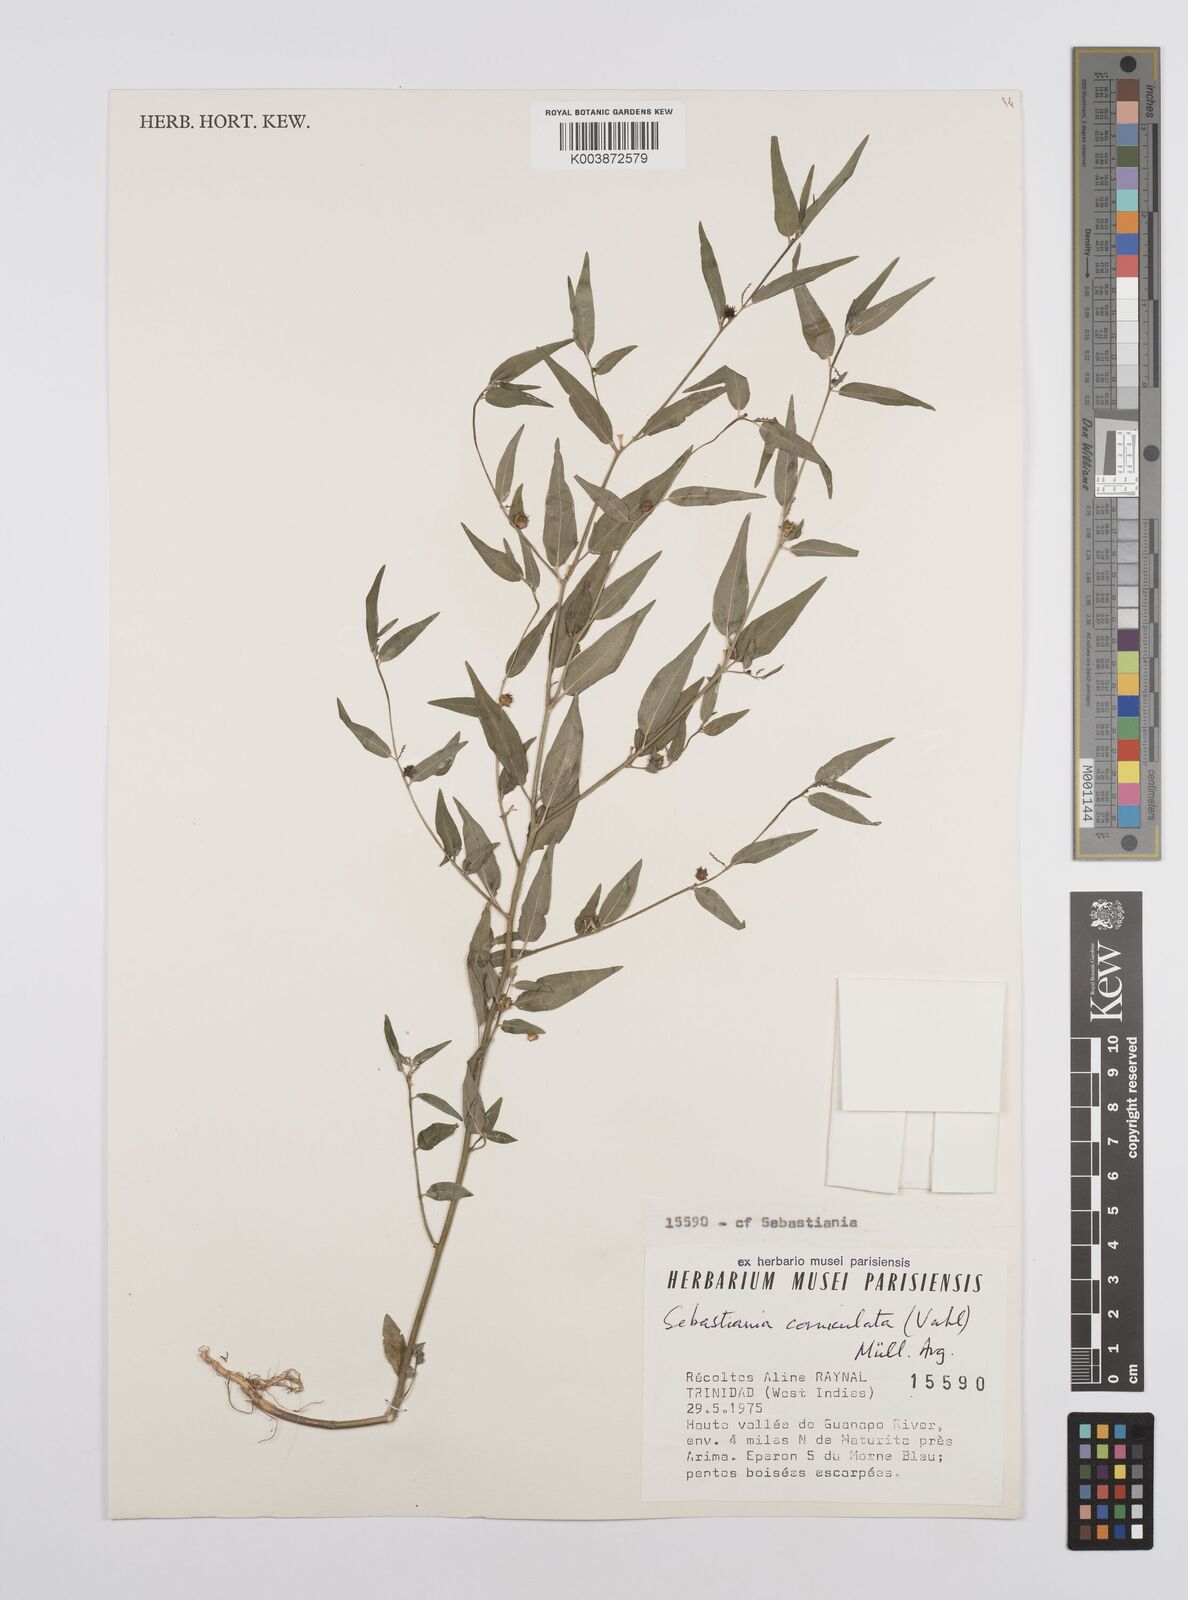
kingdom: Plantae
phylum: Tracheophyta
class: Magnoliopsida
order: Malpighiales
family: Euphorbiaceae
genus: Microstachys
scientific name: Microstachys corniculata
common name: Hato tejas
